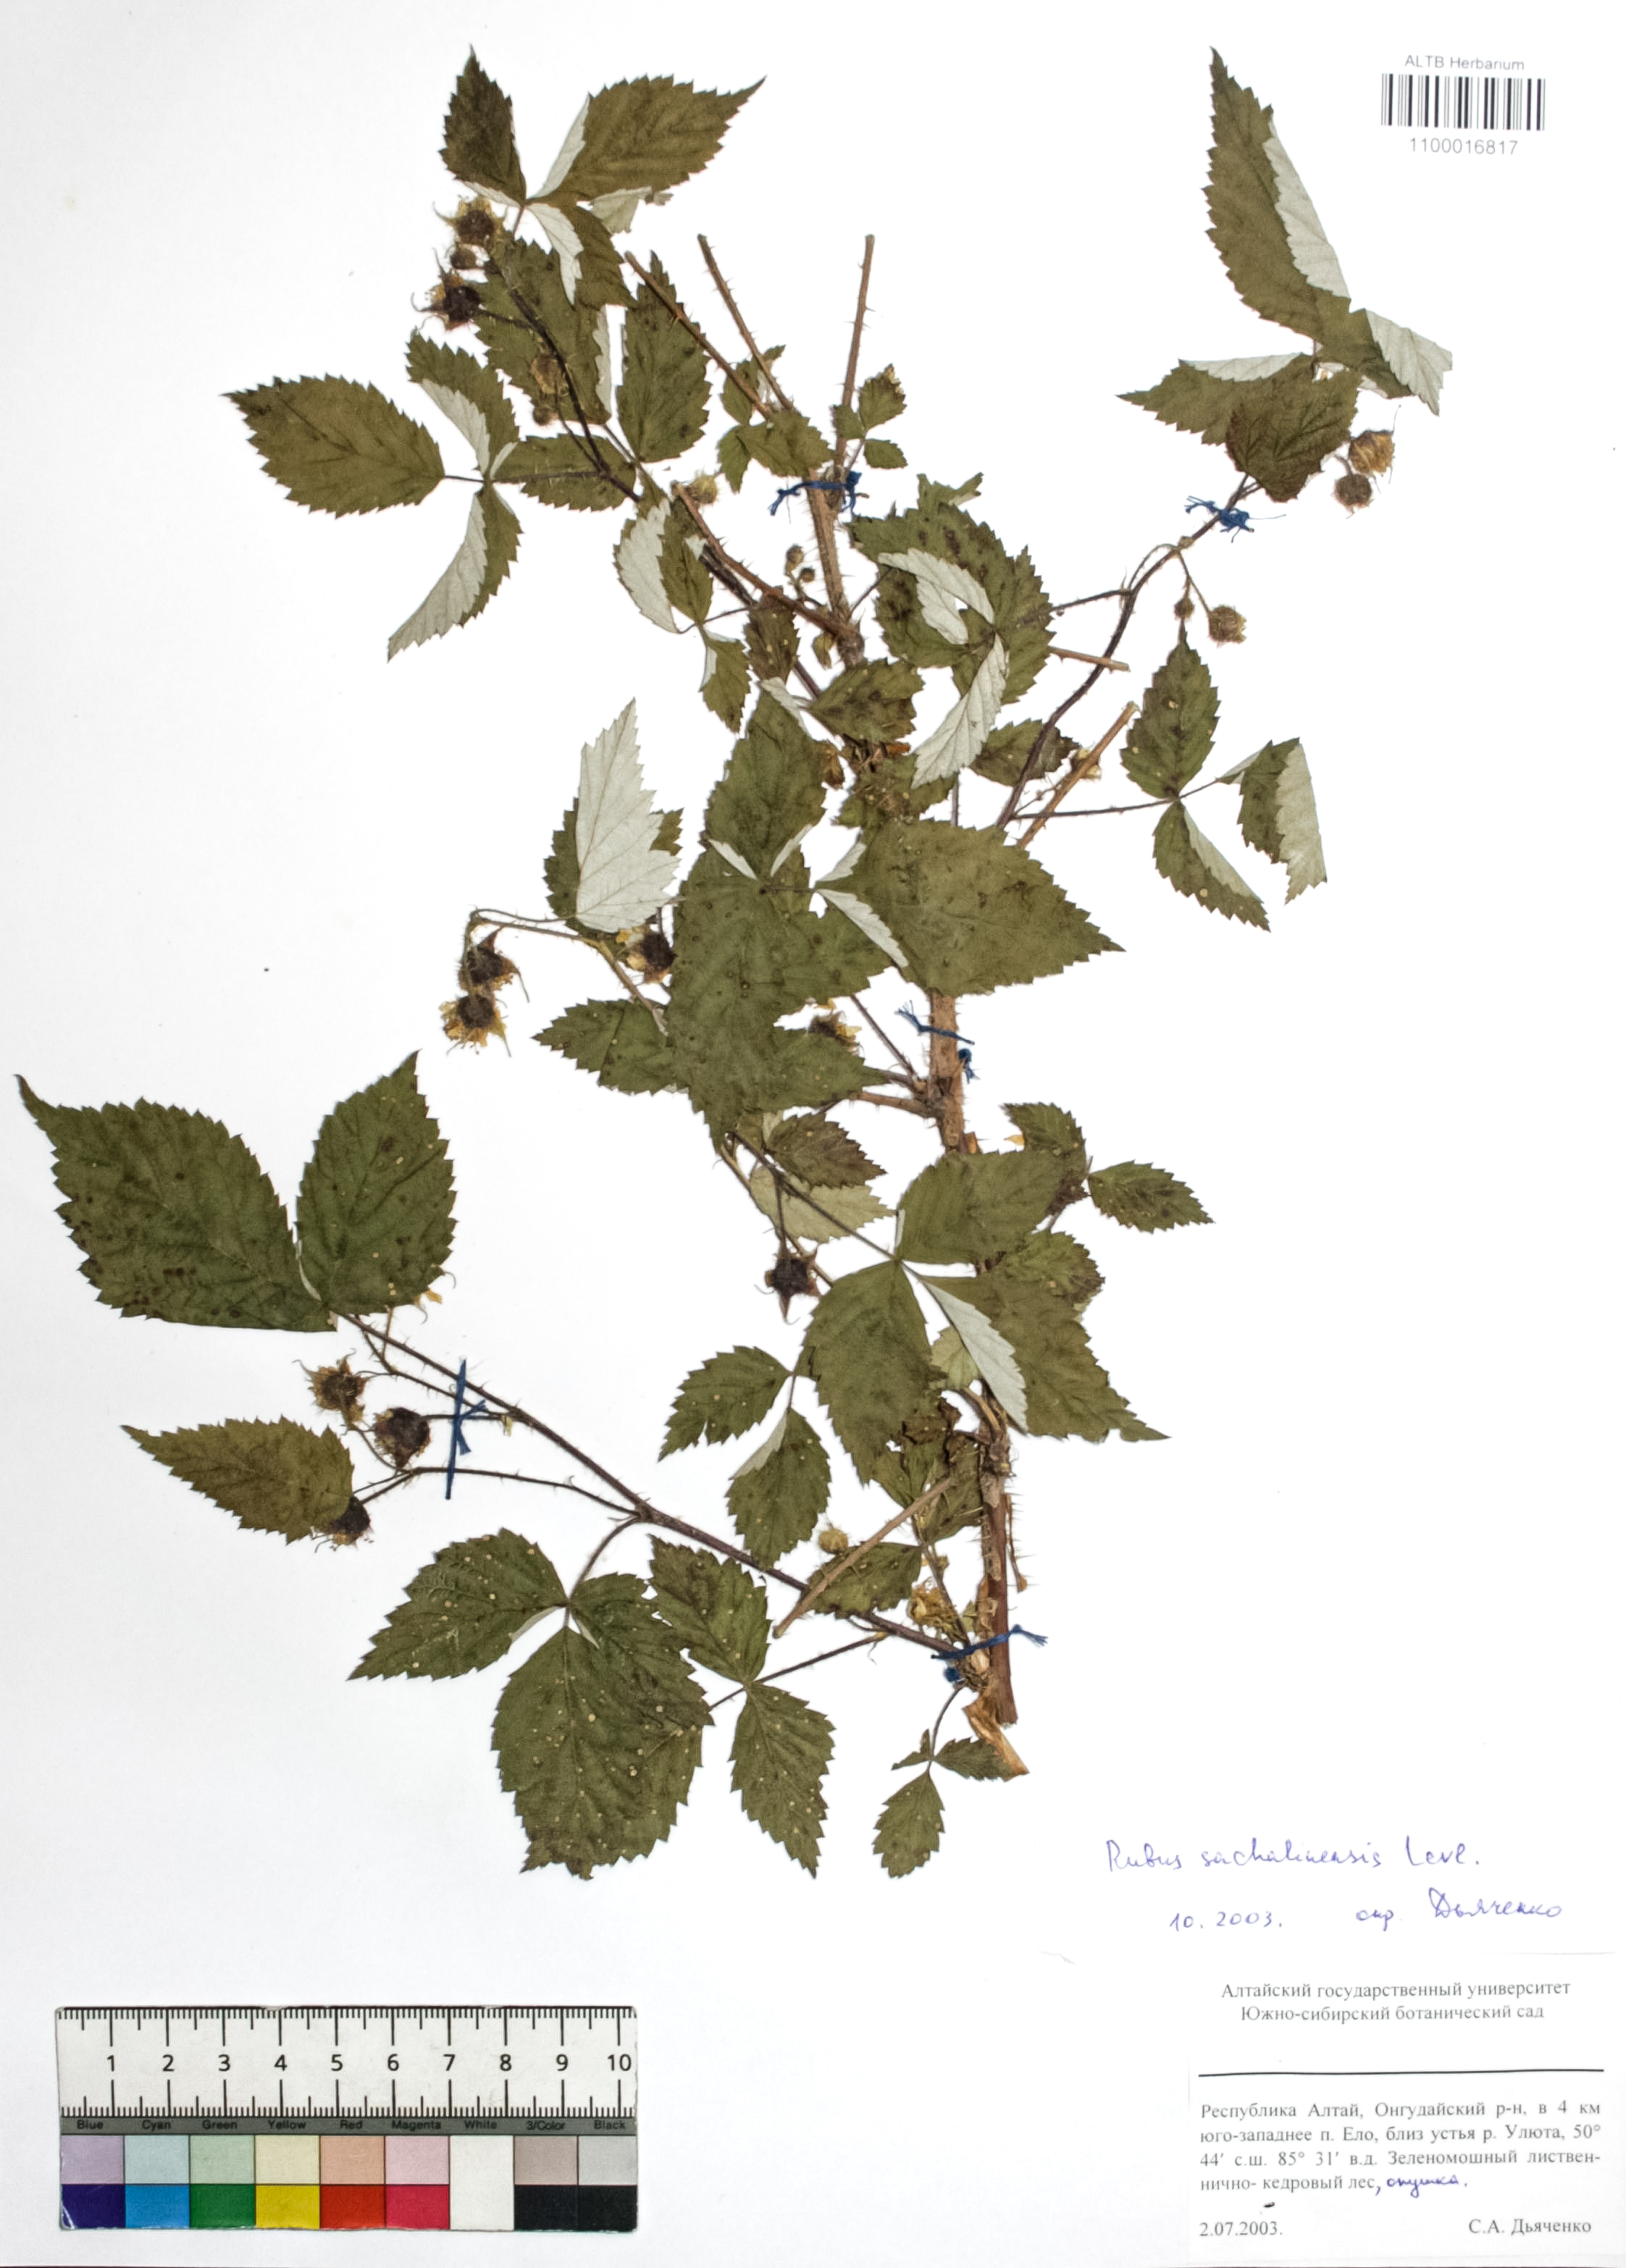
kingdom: Plantae
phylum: Tracheophyta
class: Magnoliopsida
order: Rosales
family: Rosaceae
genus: Rubus
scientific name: Rubus sachalinensis
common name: Red raspberry
